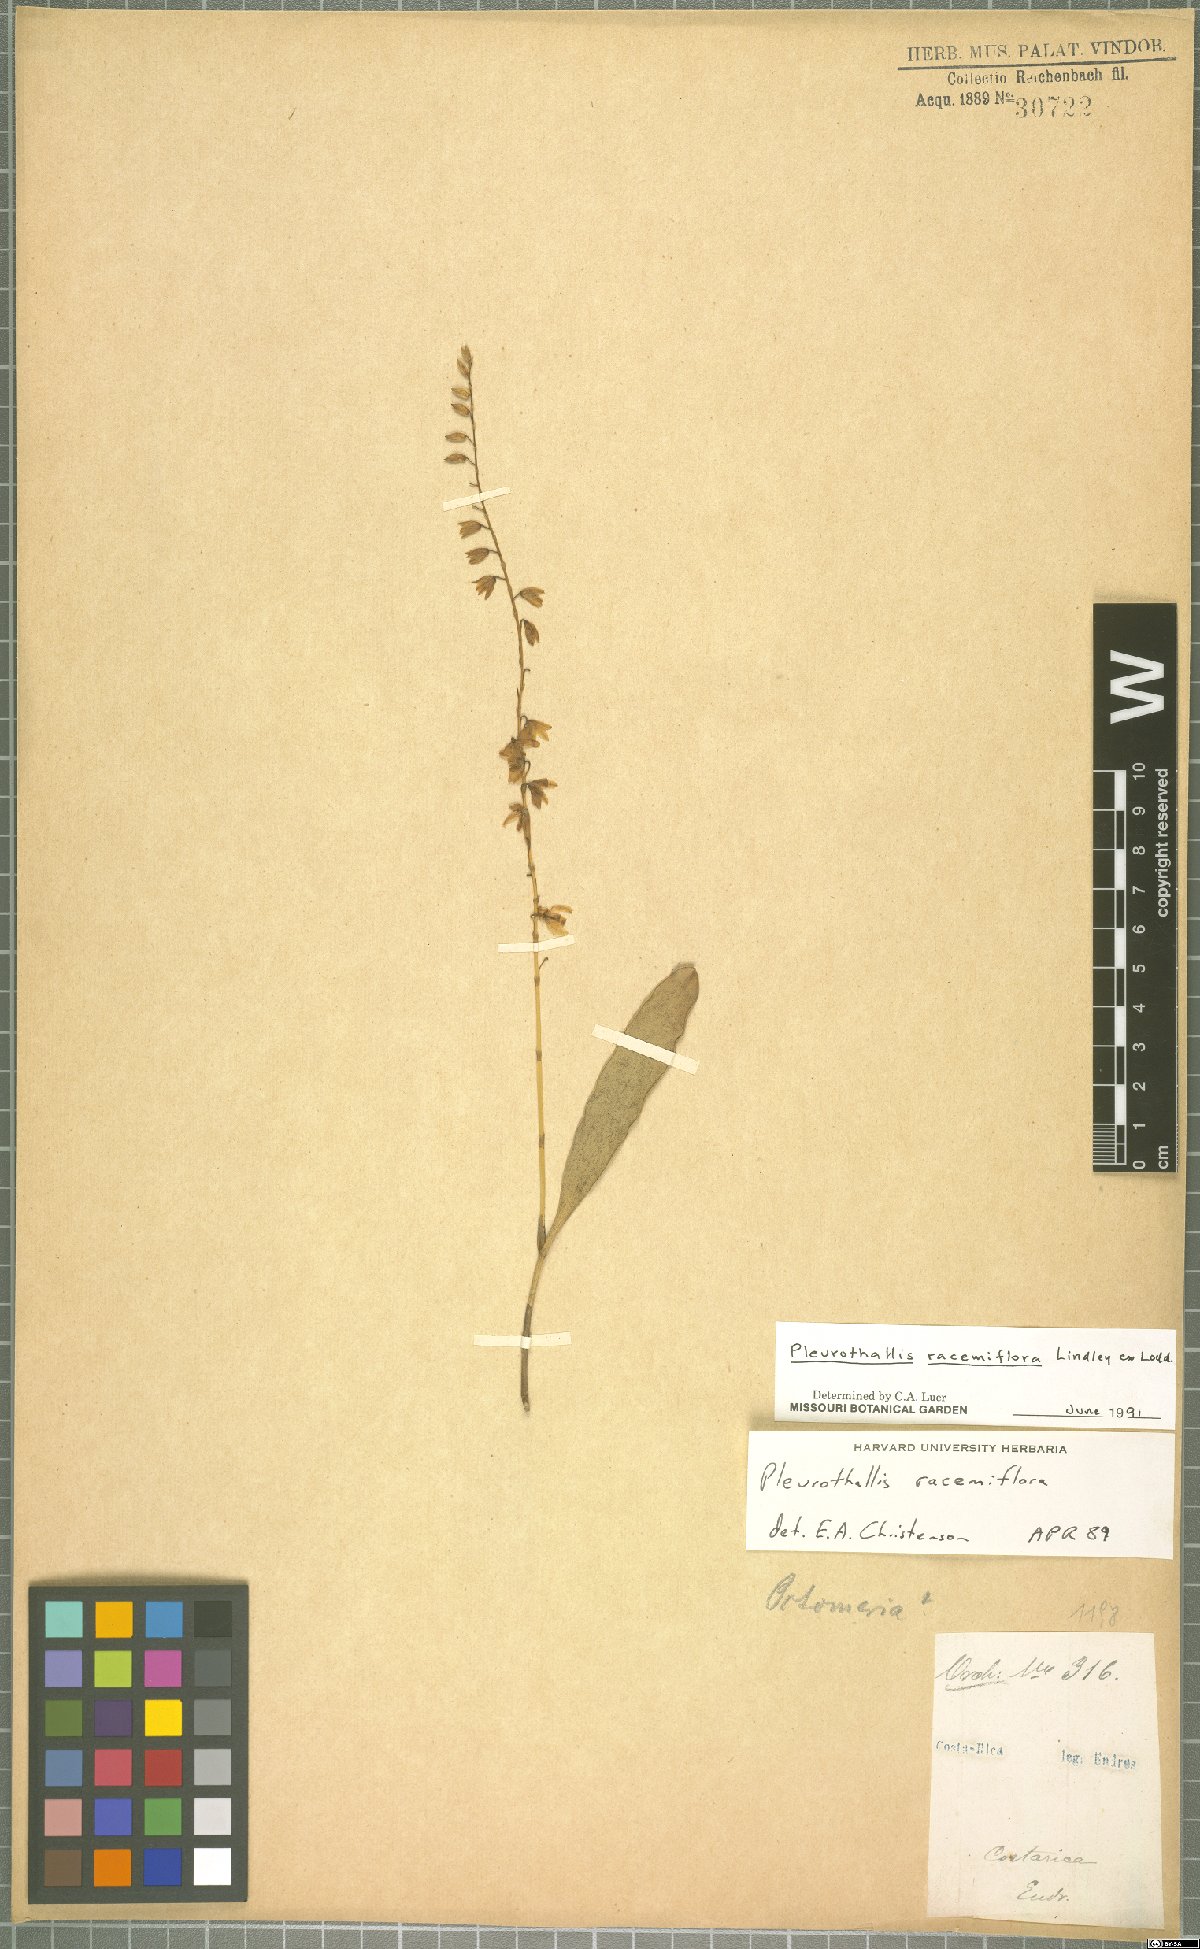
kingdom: Plantae
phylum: Tracheophyta
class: Liliopsida
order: Asparagales
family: Orchidaceae
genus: Stelis
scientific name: Stelis multirostris
